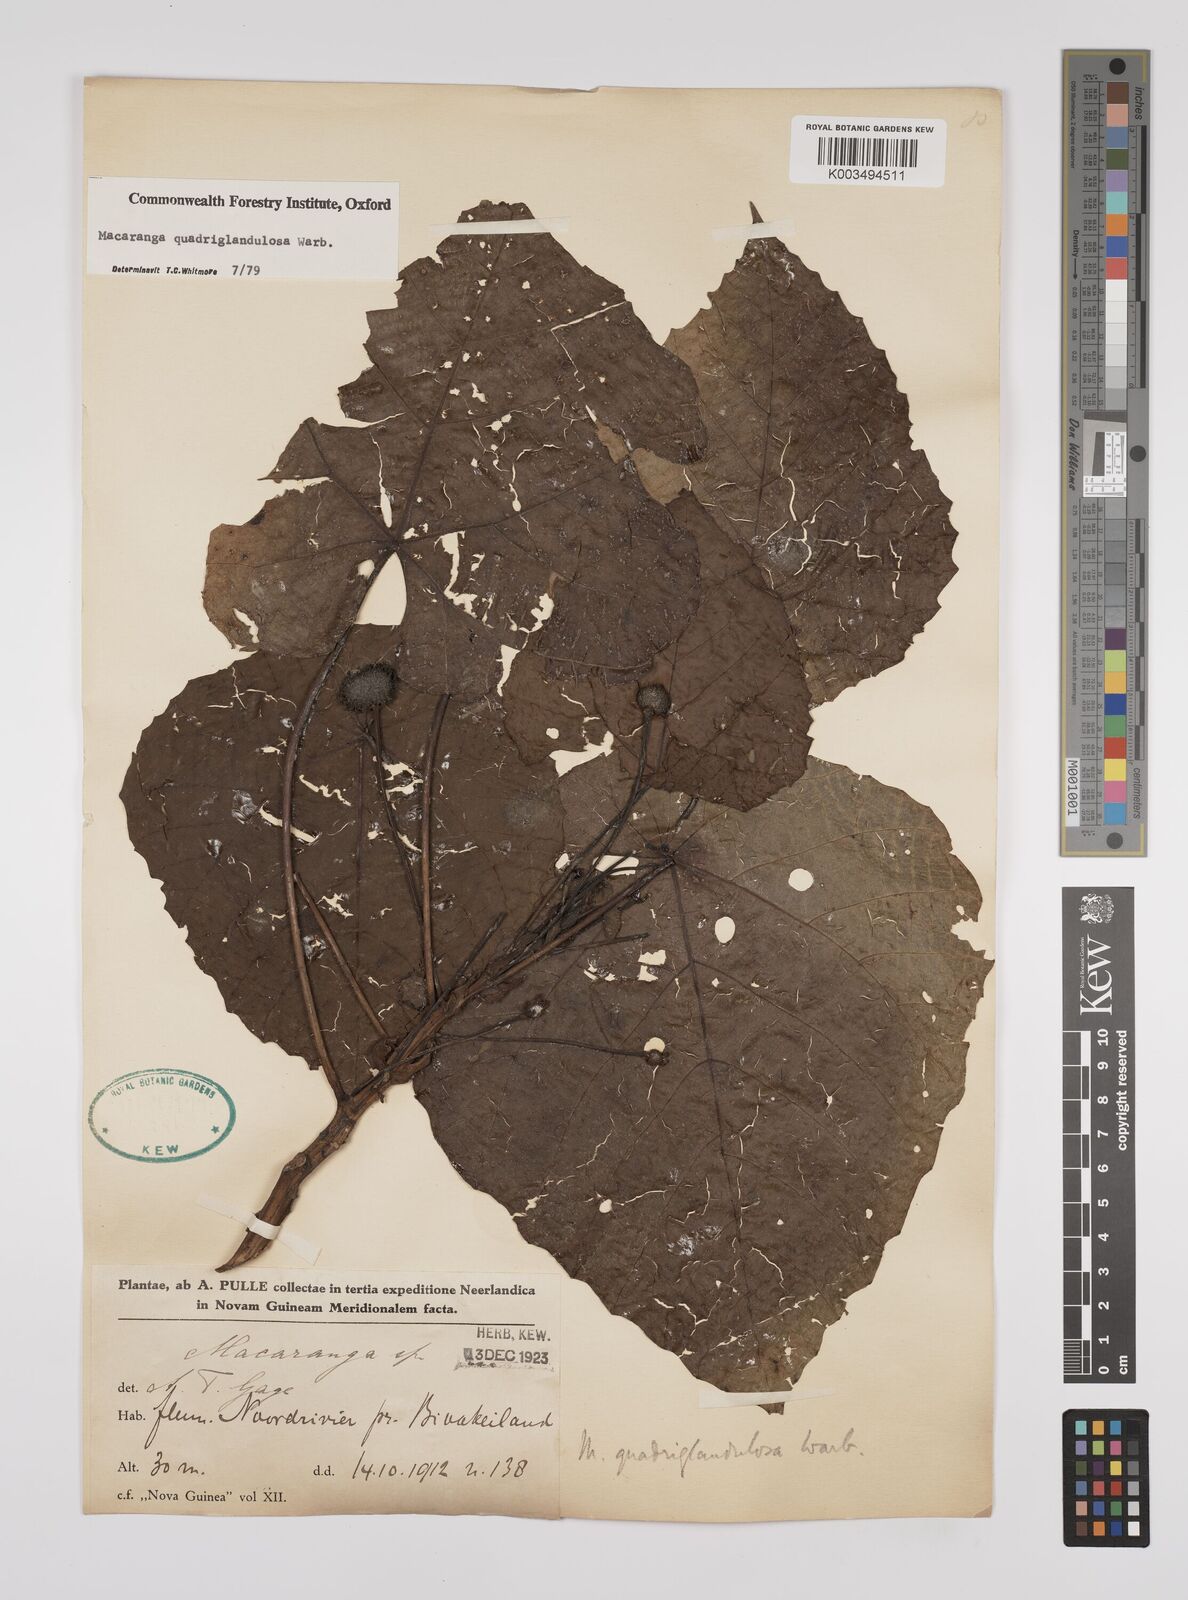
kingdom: Plantae
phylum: Tracheophyta
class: Magnoliopsida
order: Malpighiales
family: Euphorbiaceae
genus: Macaranga
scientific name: Macaranga quadriglandulosa
